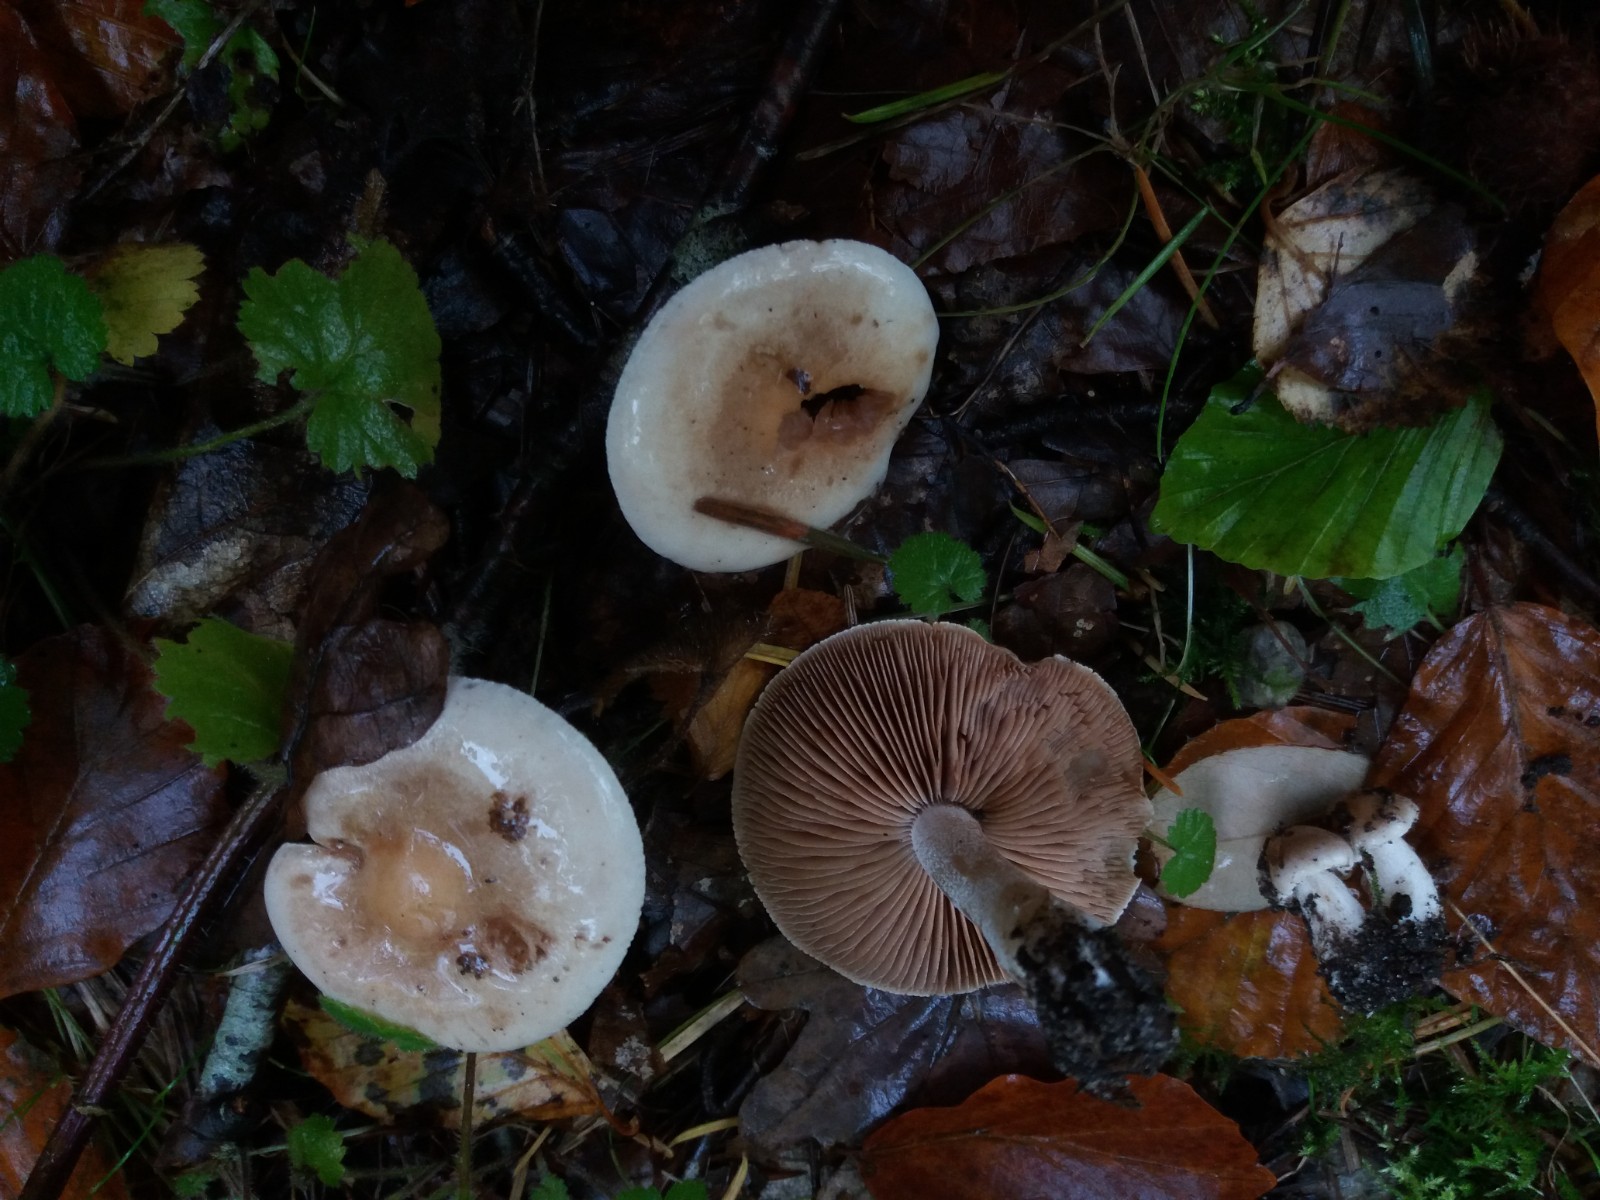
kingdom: Fungi
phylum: Basidiomycota
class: Agaricomycetes
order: Agaricales
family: Hymenogastraceae
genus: Hebeloma
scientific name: Hebeloma
